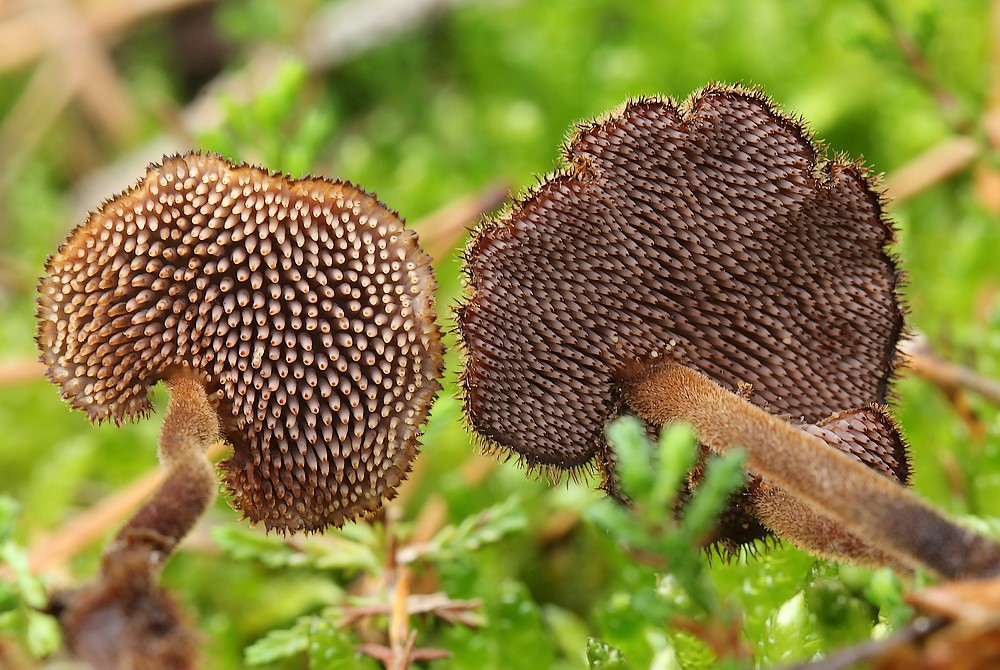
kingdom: Fungi
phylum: Basidiomycota
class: Agaricomycetes
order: Russulales
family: Auriscalpiaceae
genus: Auriscalpium
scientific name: Auriscalpium vulgare
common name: koglepigsvamp
